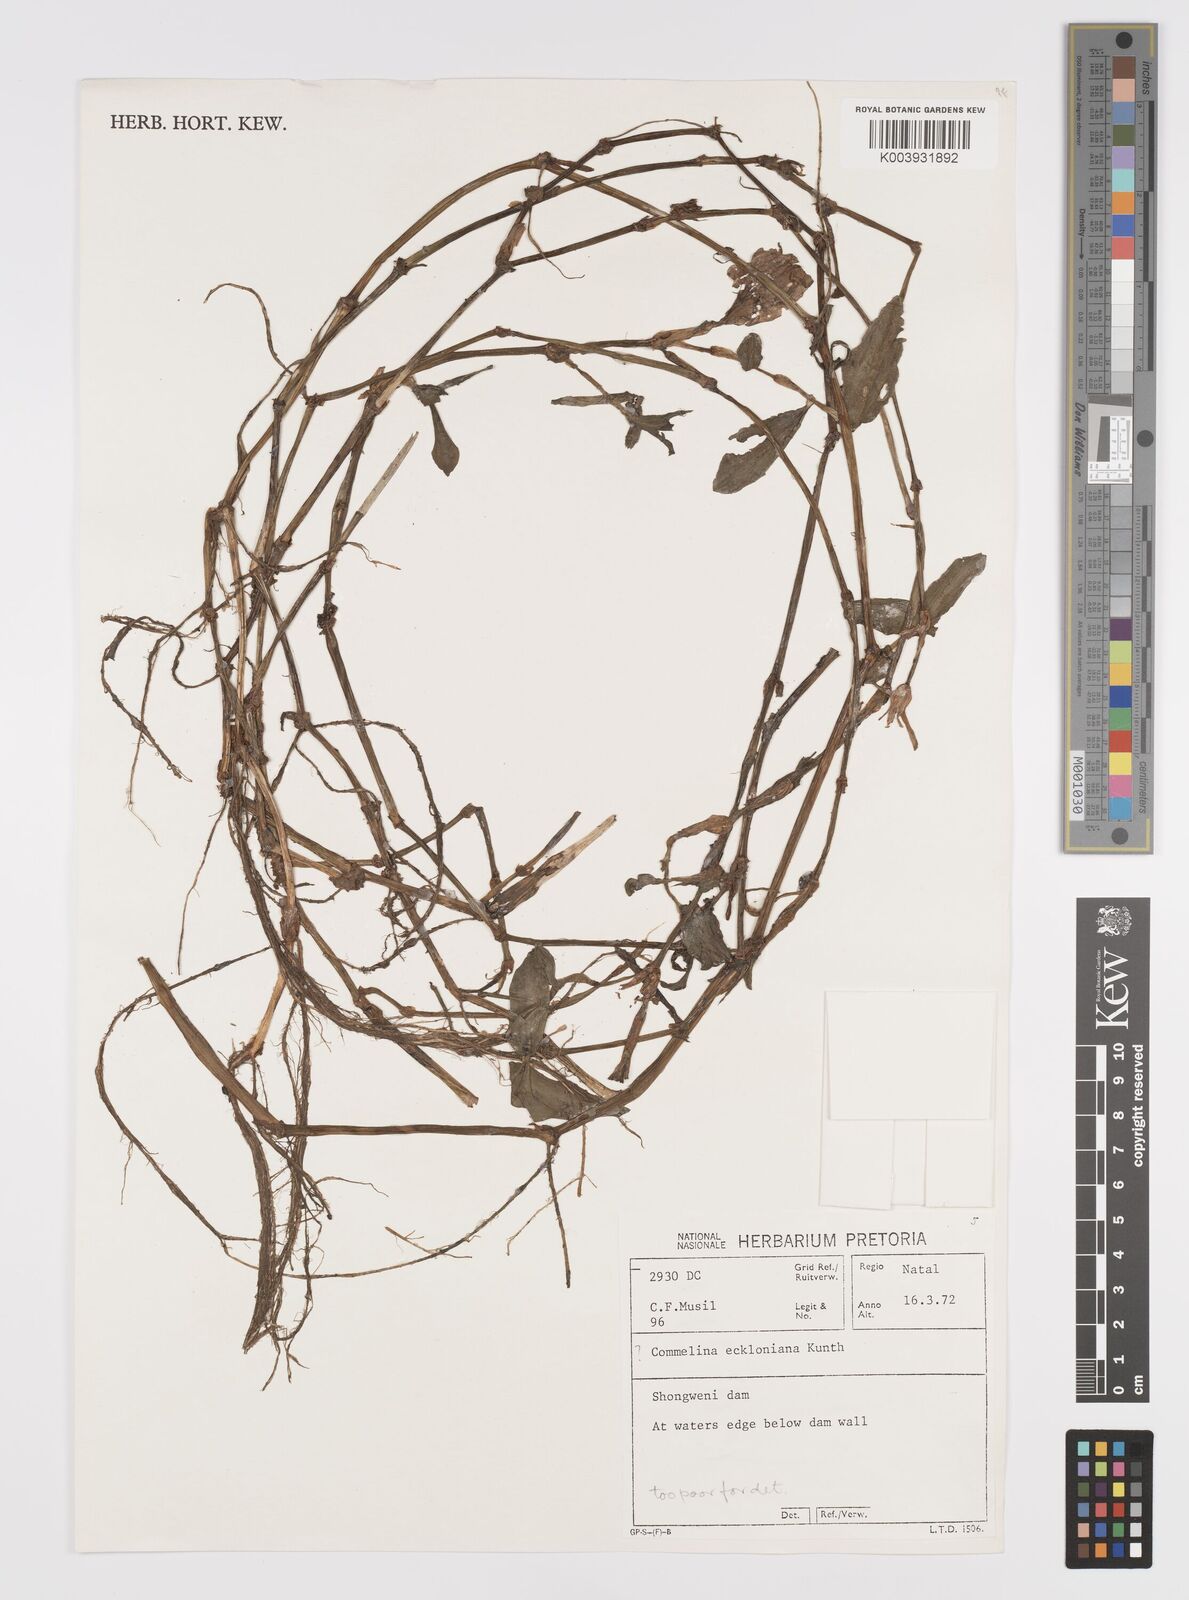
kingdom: Plantae
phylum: Tracheophyta
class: Liliopsida
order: Commelinales
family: Commelinaceae
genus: Commelina
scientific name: Commelina eckloniana
